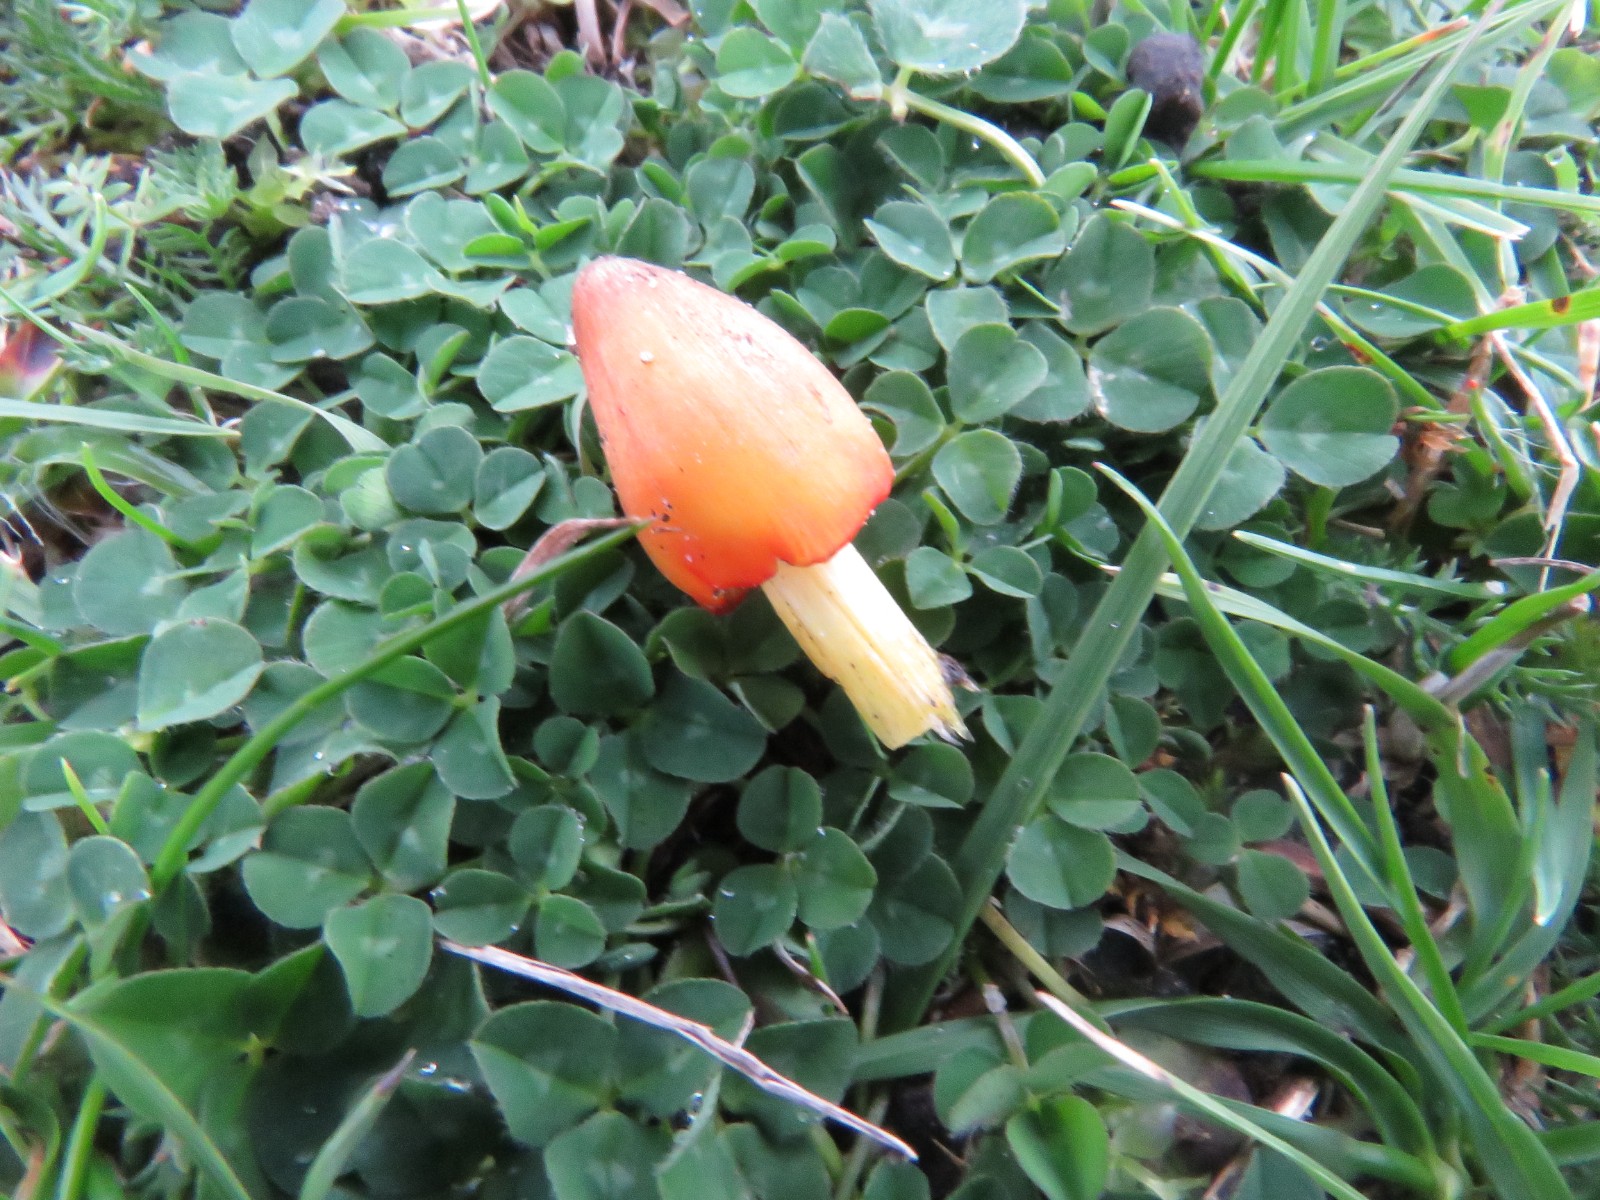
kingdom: Fungi
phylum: Basidiomycota
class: Agaricomycetes
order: Agaricales
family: Hygrophoraceae
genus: Hygrocybe
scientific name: Hygrocybe conica
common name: kegle-vokshat
